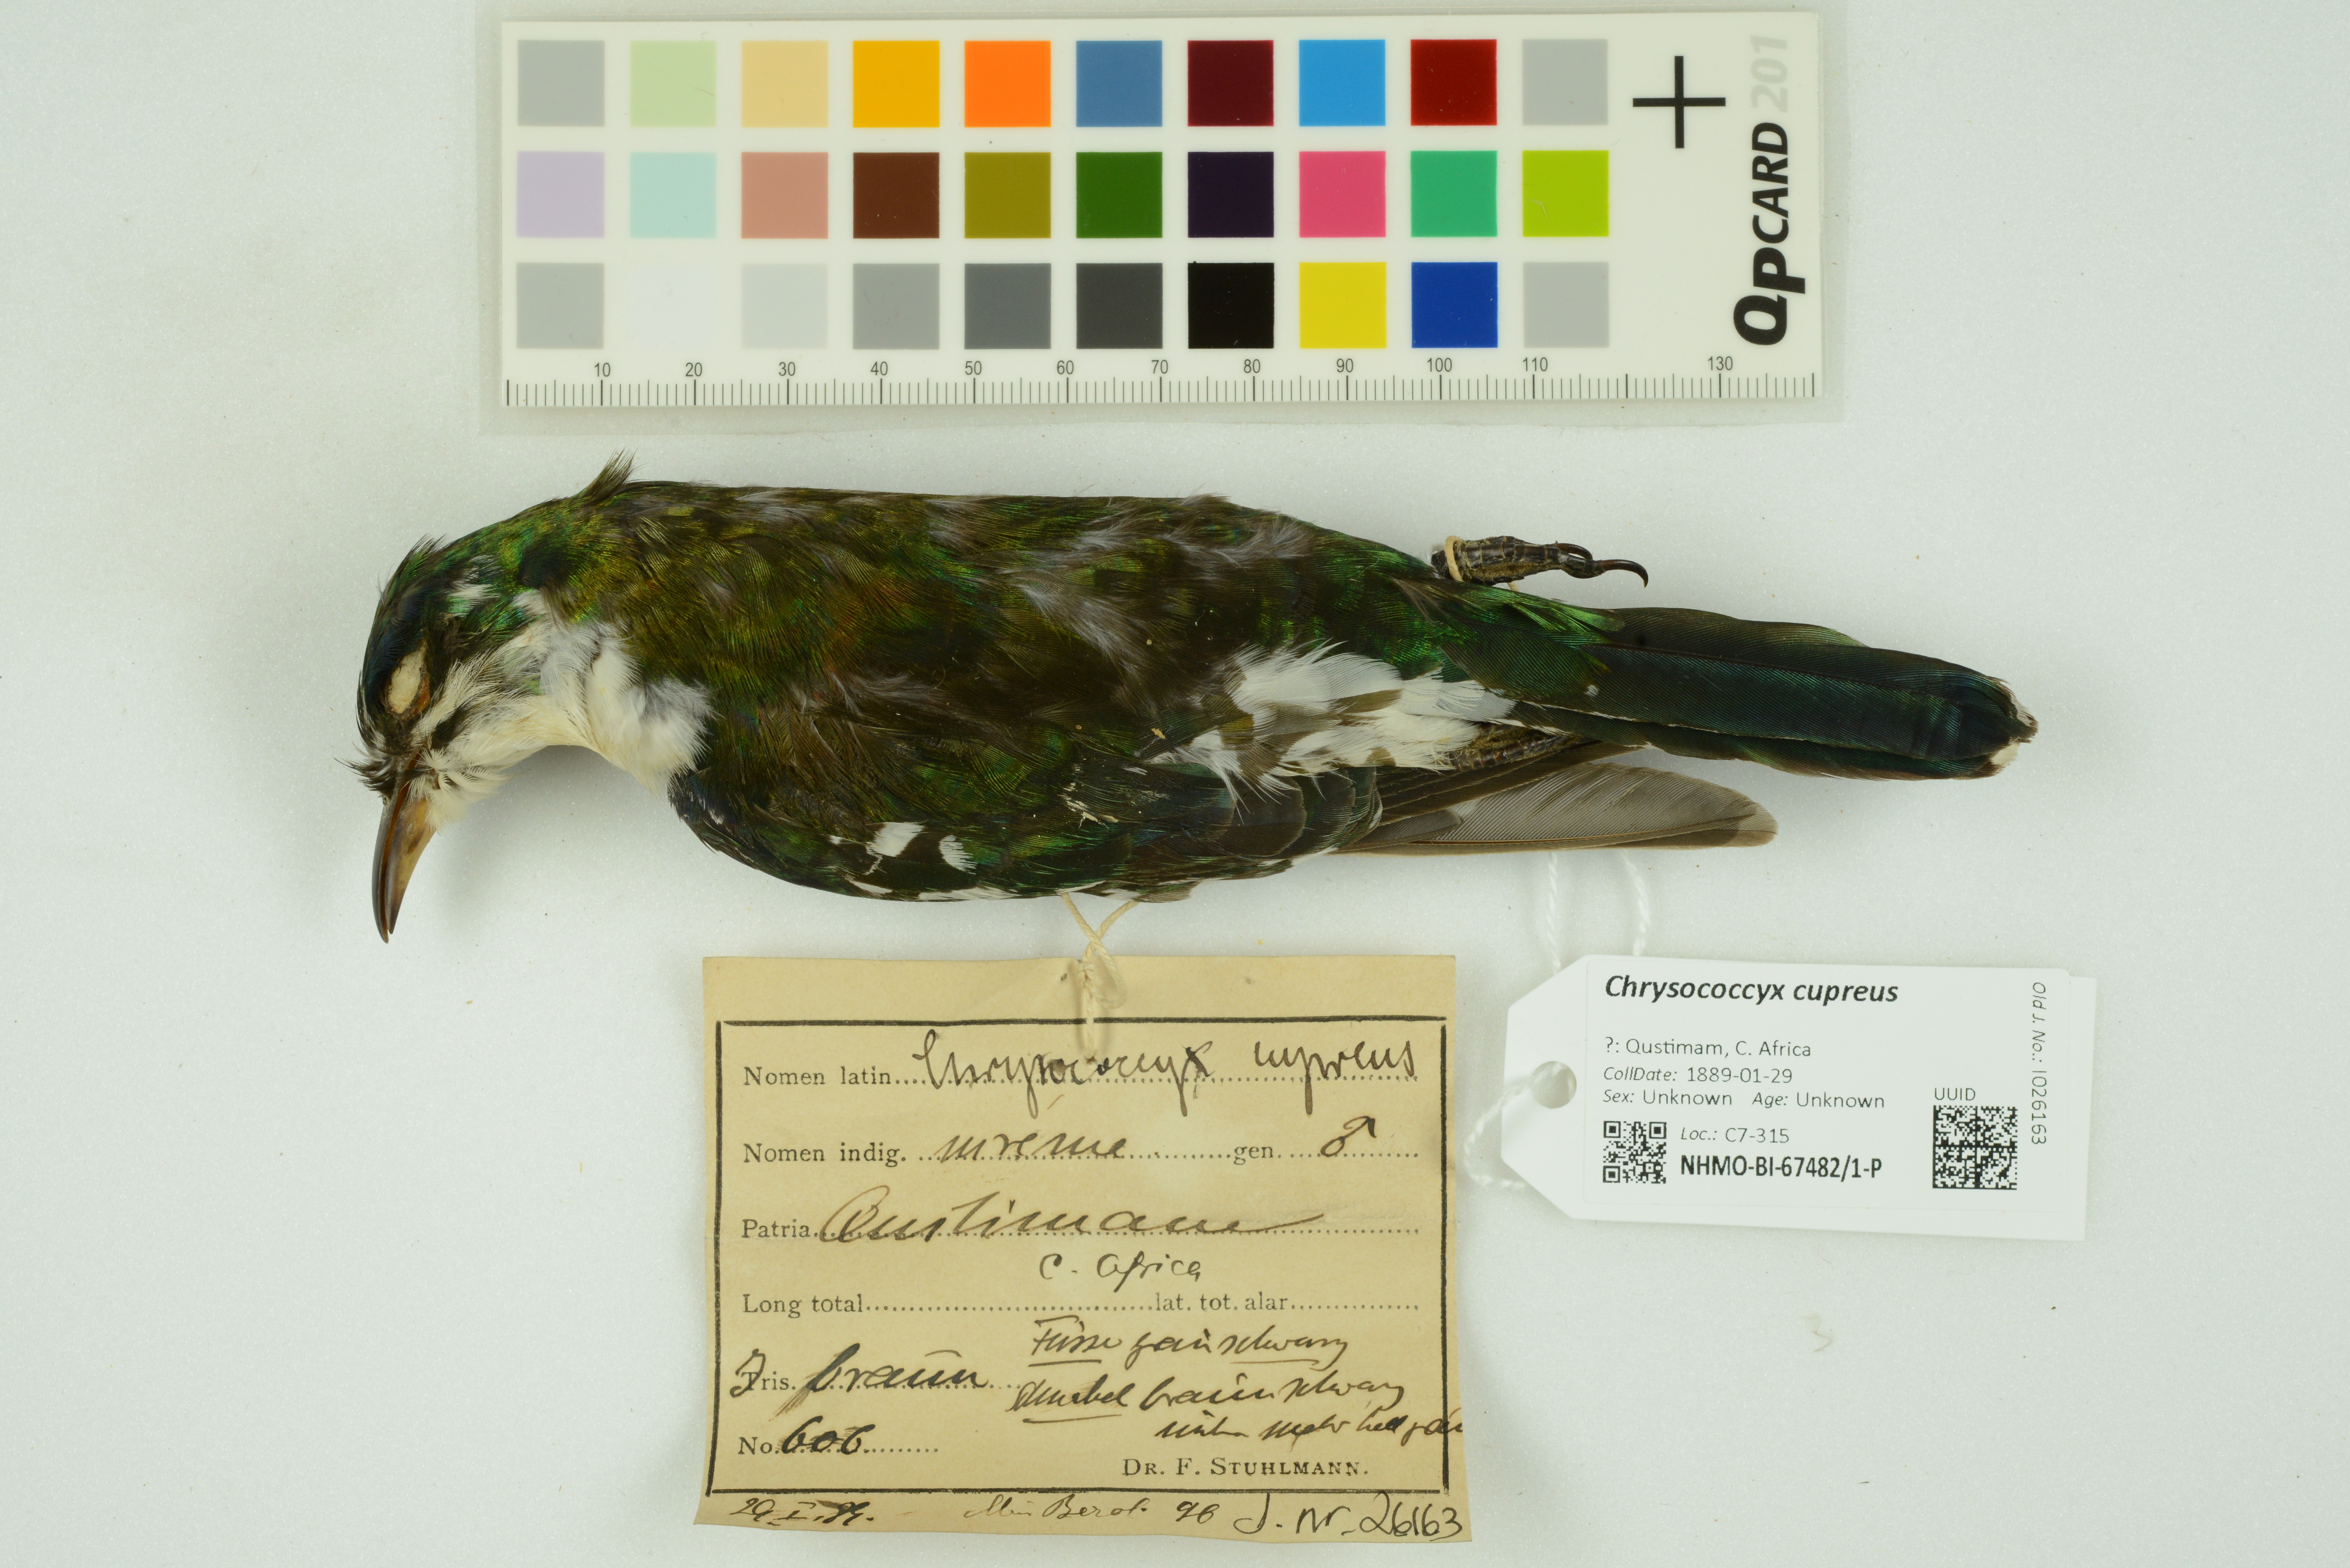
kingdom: Animalia
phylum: Chordata
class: Aves
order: Cuculiformes
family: Cuculidae
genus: Chrysococcyx
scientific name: Chrysococcyx cupreus
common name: African emerald cuckoo
